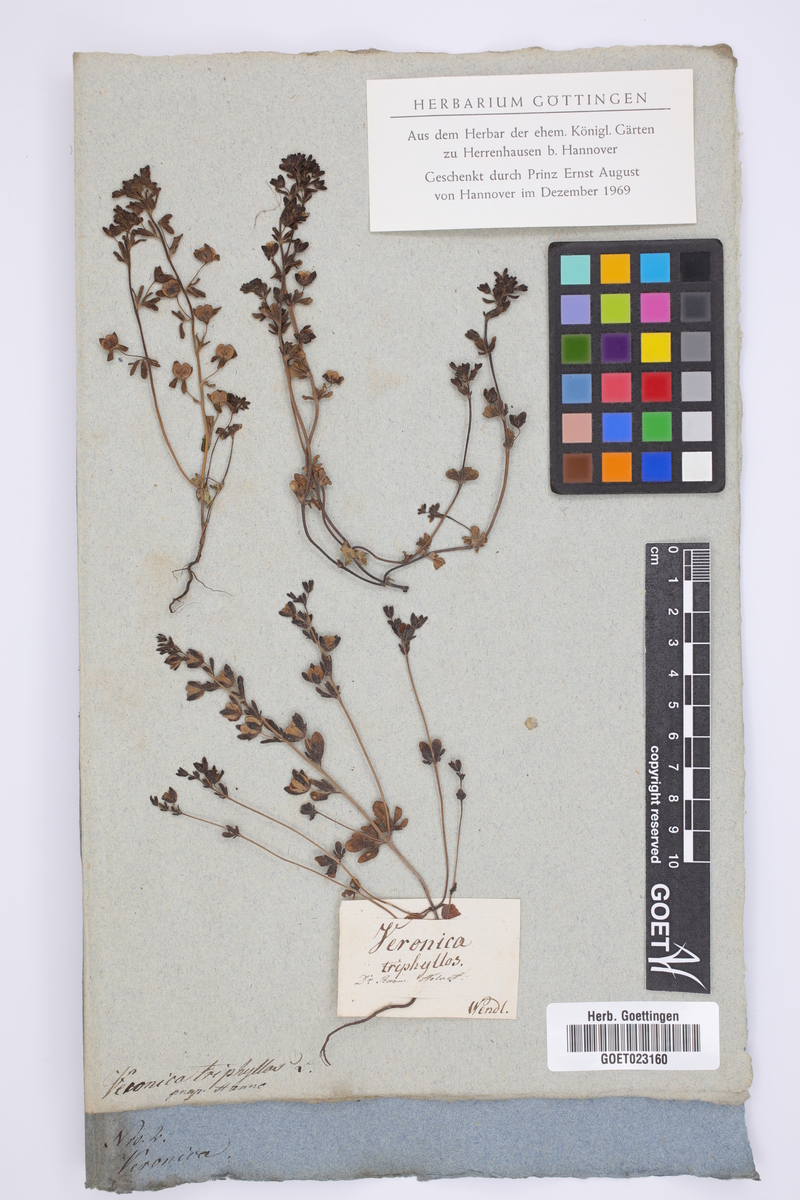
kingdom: Plantae
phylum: Tracheophyta
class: Magnoliopsida
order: Lamiales
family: Plantaginaceae
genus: Veronica
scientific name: Veronica triphyllos
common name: Fingered speedwell
